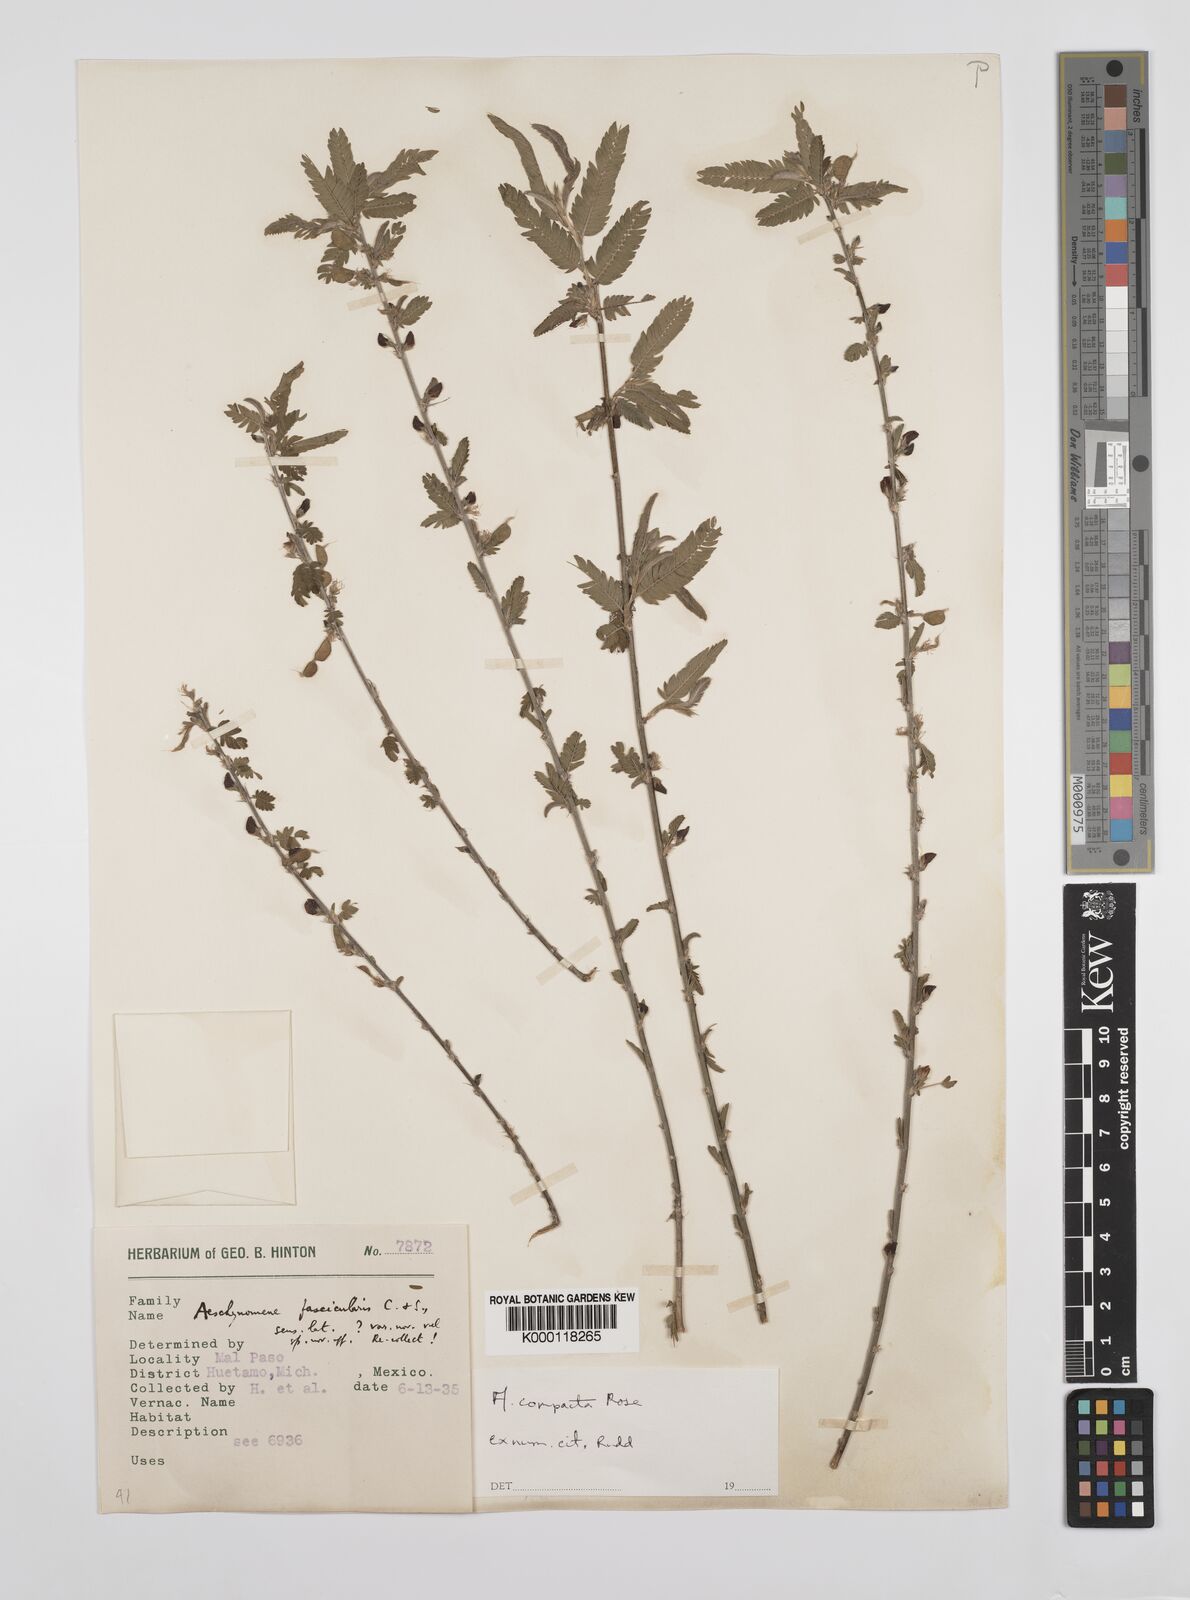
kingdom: Plantae
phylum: Tracheophyta
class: Magnoliopsida
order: Fabales
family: Fabaceae
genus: Ctenodon
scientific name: Ctenodon compactus
